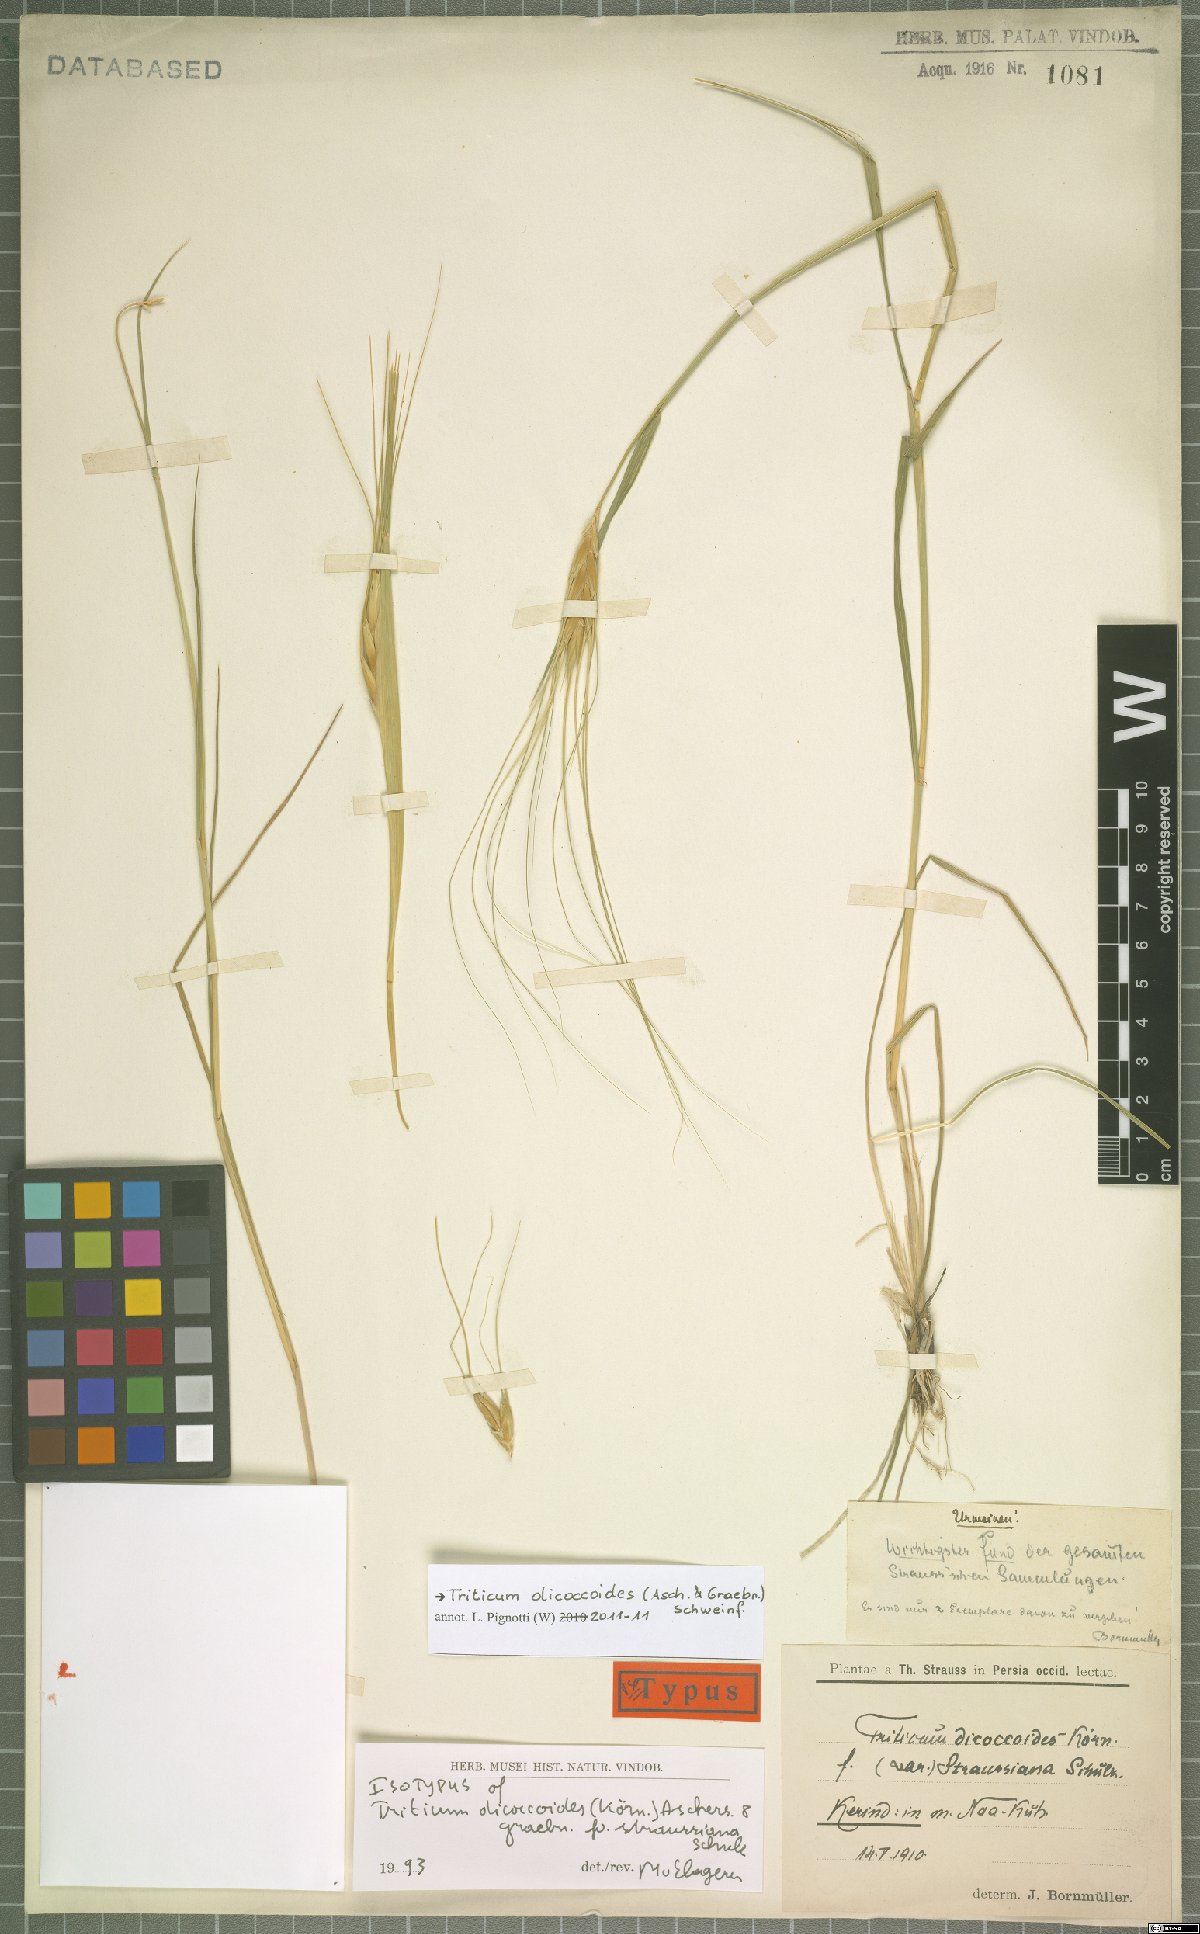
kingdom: Plantae
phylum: Tracheophyta
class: Liliopsida
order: Poales
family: Poaceae
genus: Triticum
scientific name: Triticum turgidum
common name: Rivet wheat
